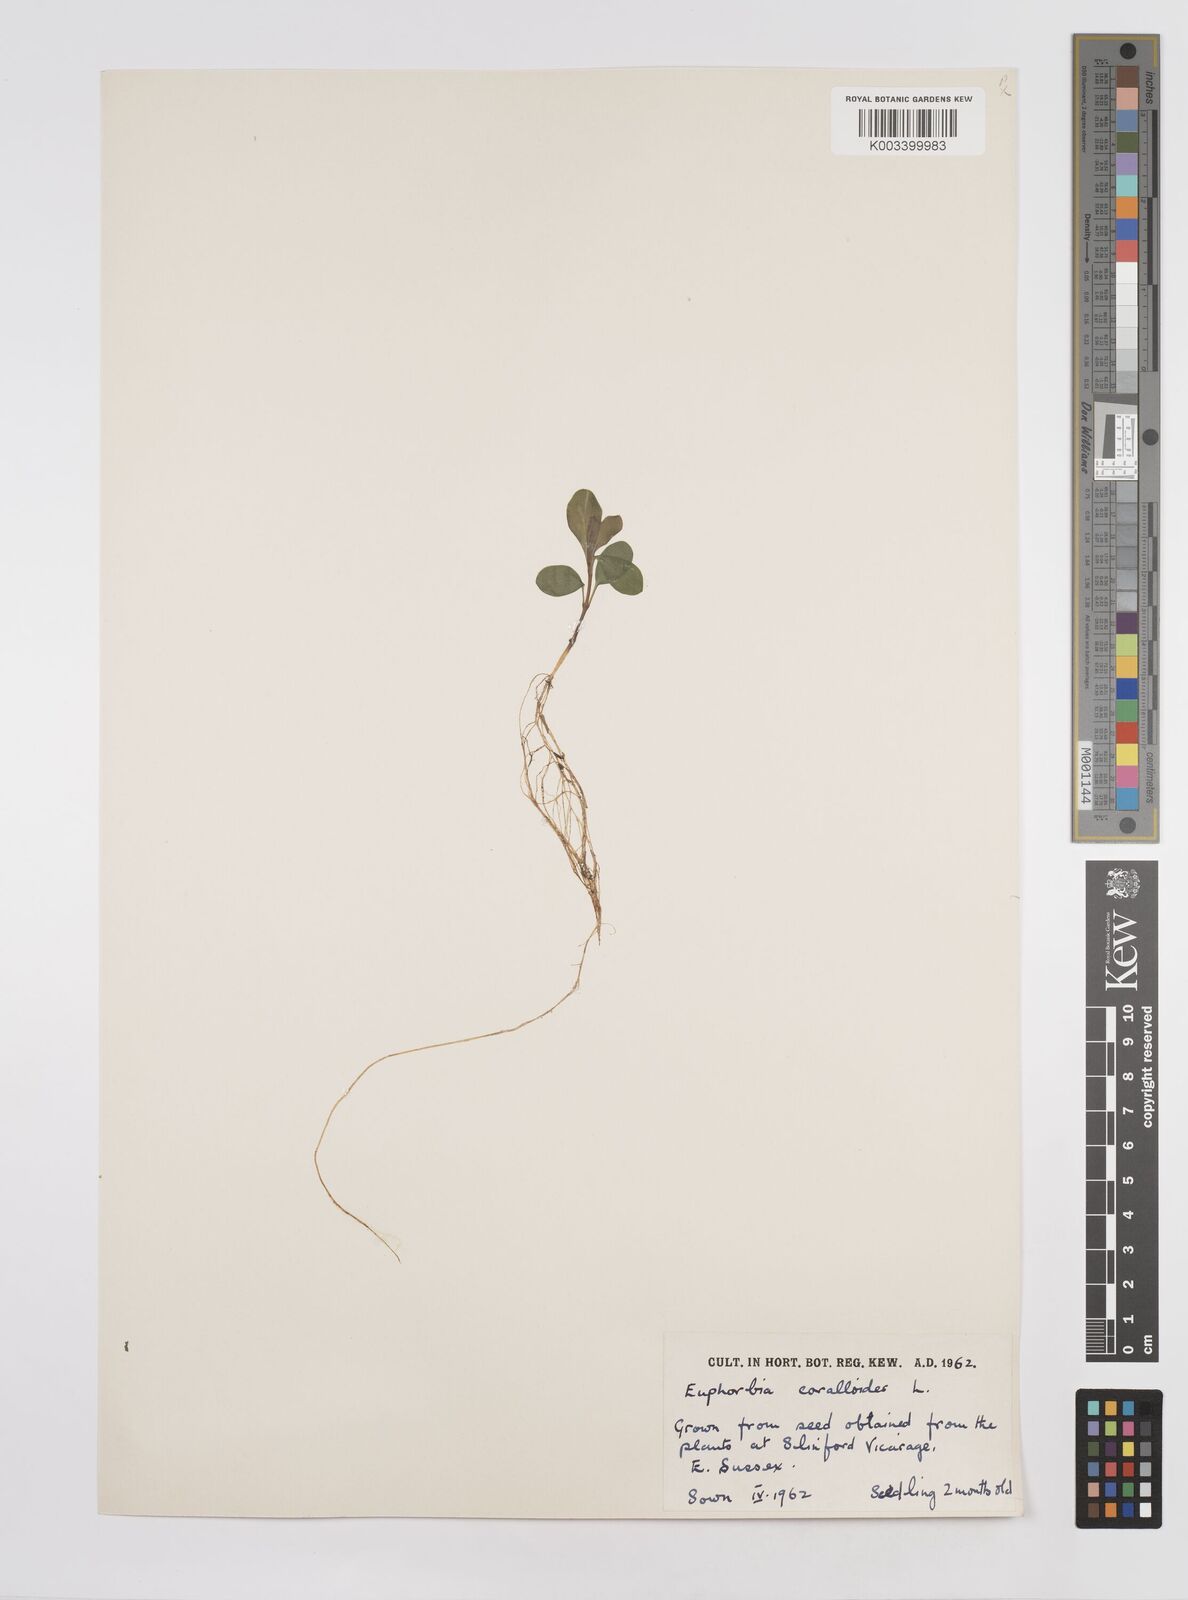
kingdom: Plantae
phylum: Tracheophyta
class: Magnoliopsida
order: Malpighiales
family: Euphorbiaceae
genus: Euphorbia
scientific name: Euphorbia corallioides
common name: Coral spurge
